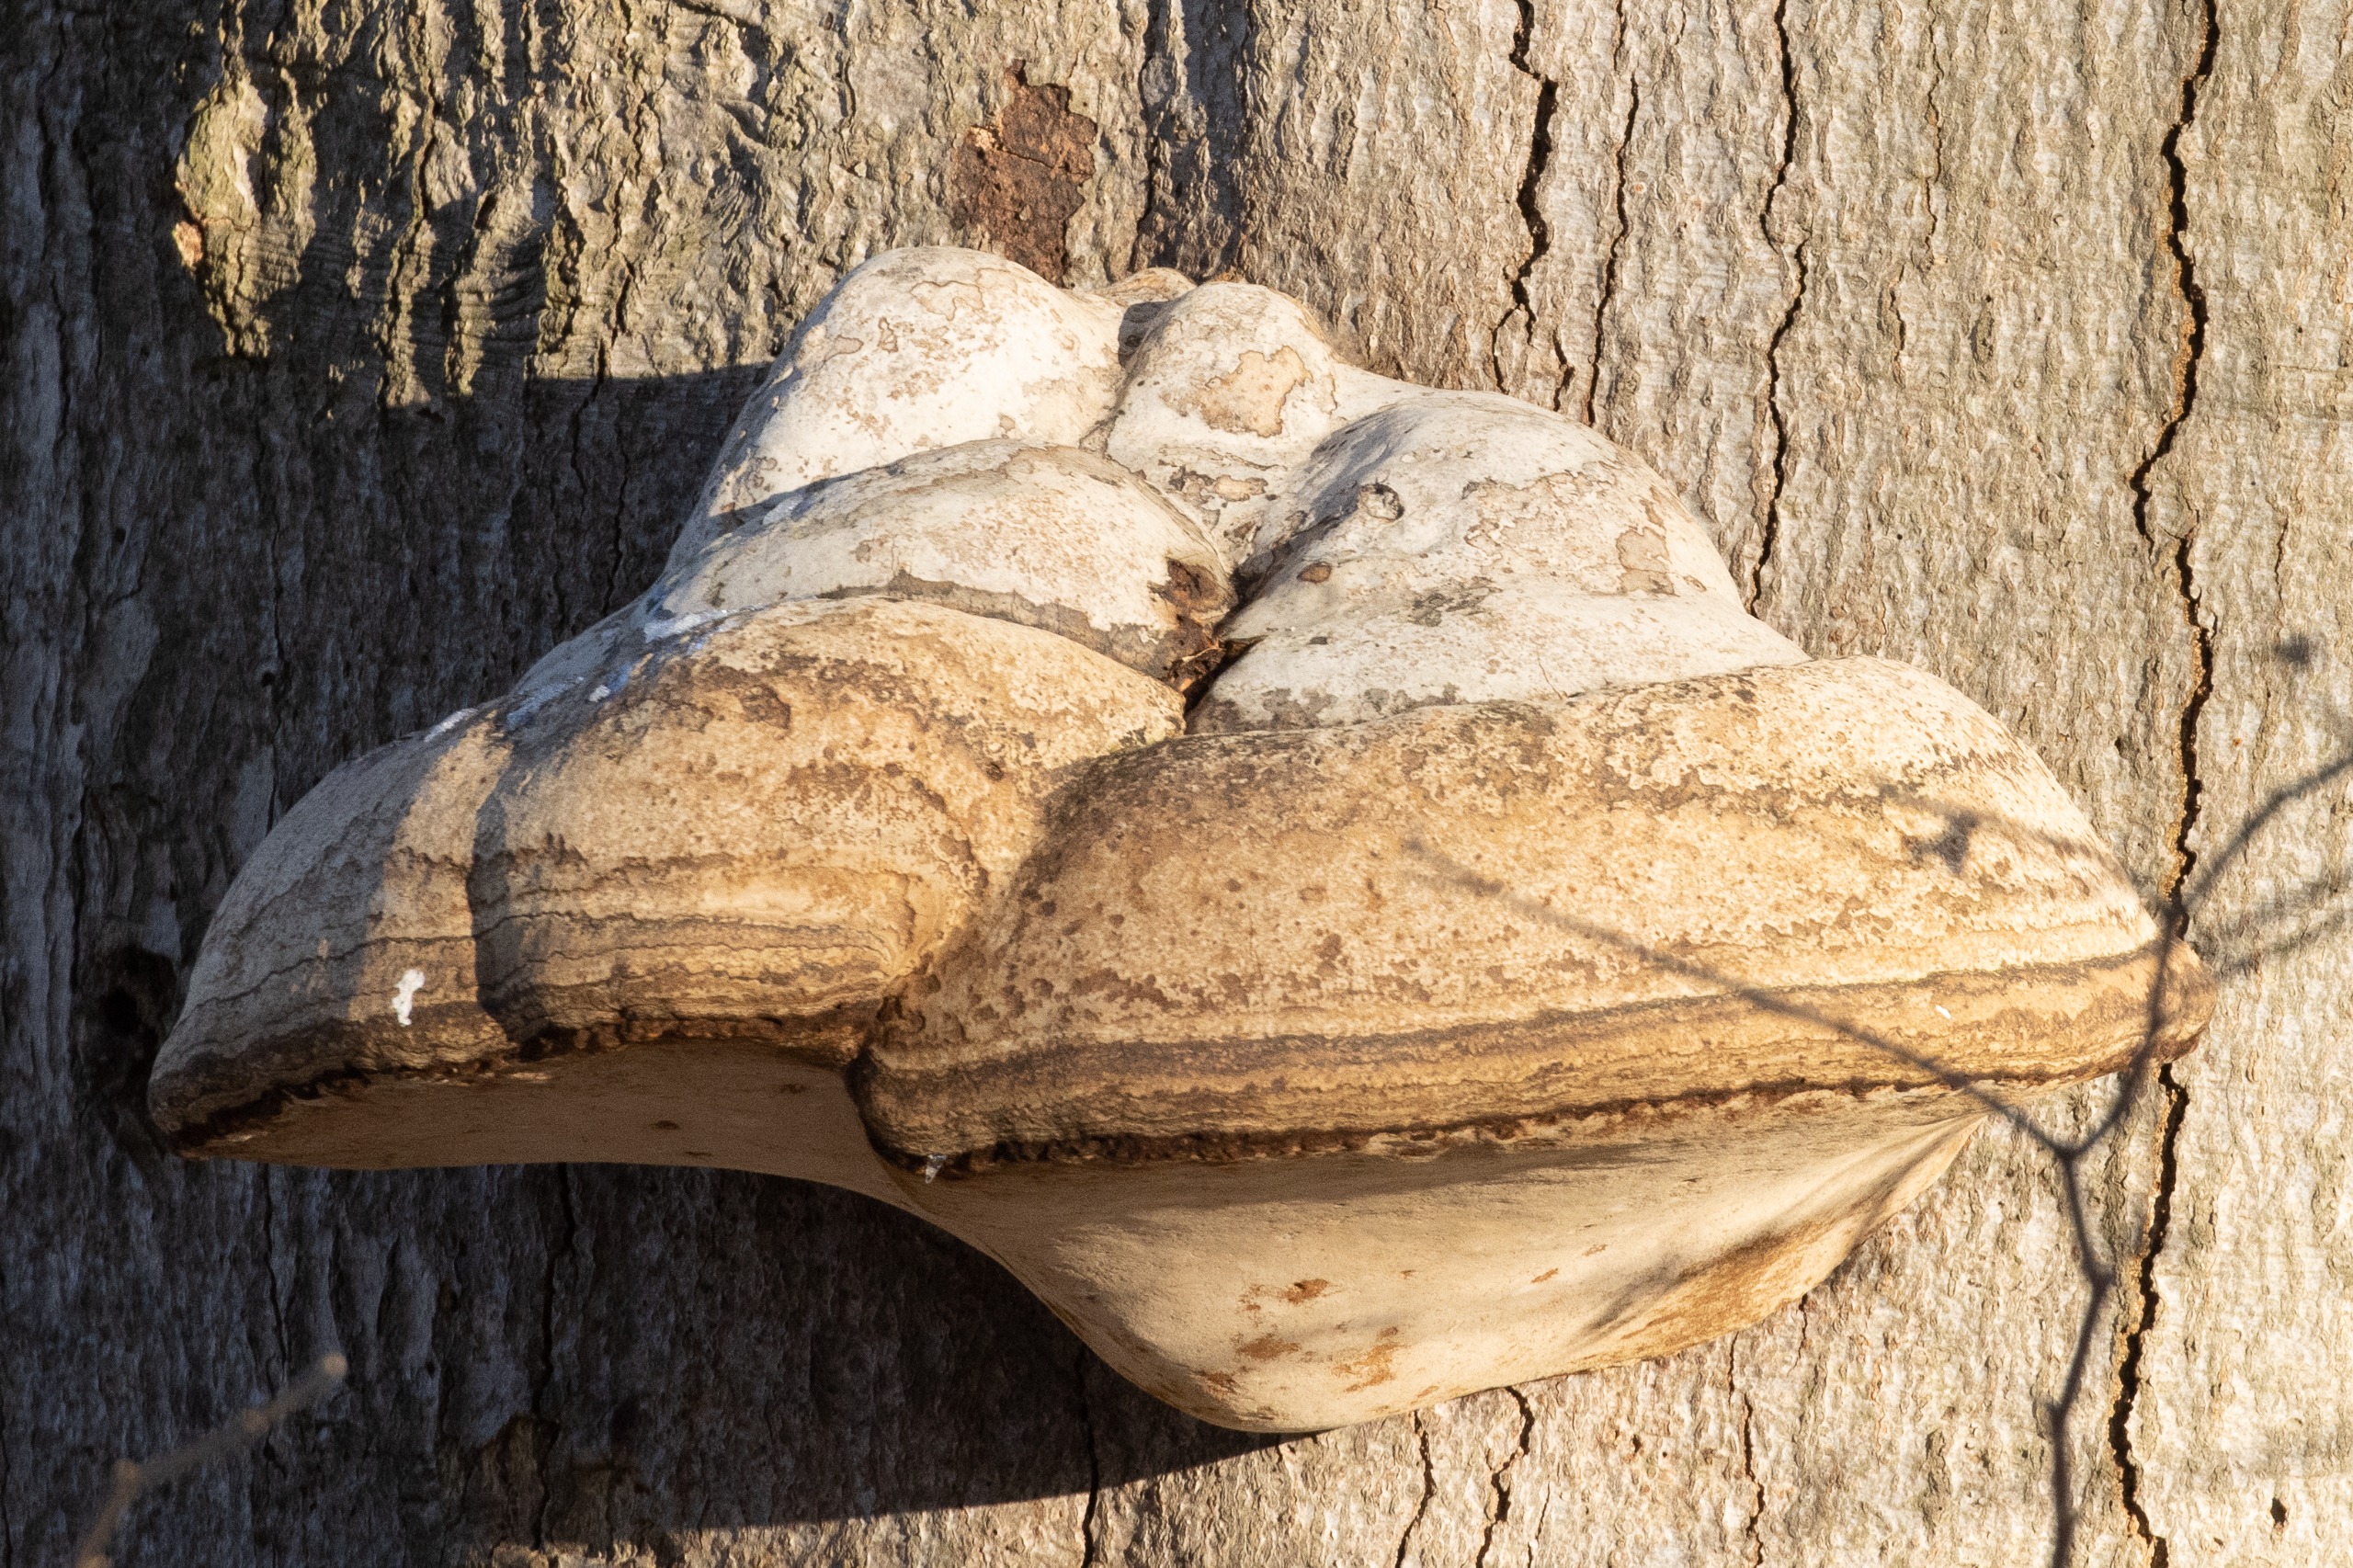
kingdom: Fungi
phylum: Basidiomycota
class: Agaricomycetes
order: Polyporales
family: Polyporaceae
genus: Fomes
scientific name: Fomes fomentarius
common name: Tøndersvamp
